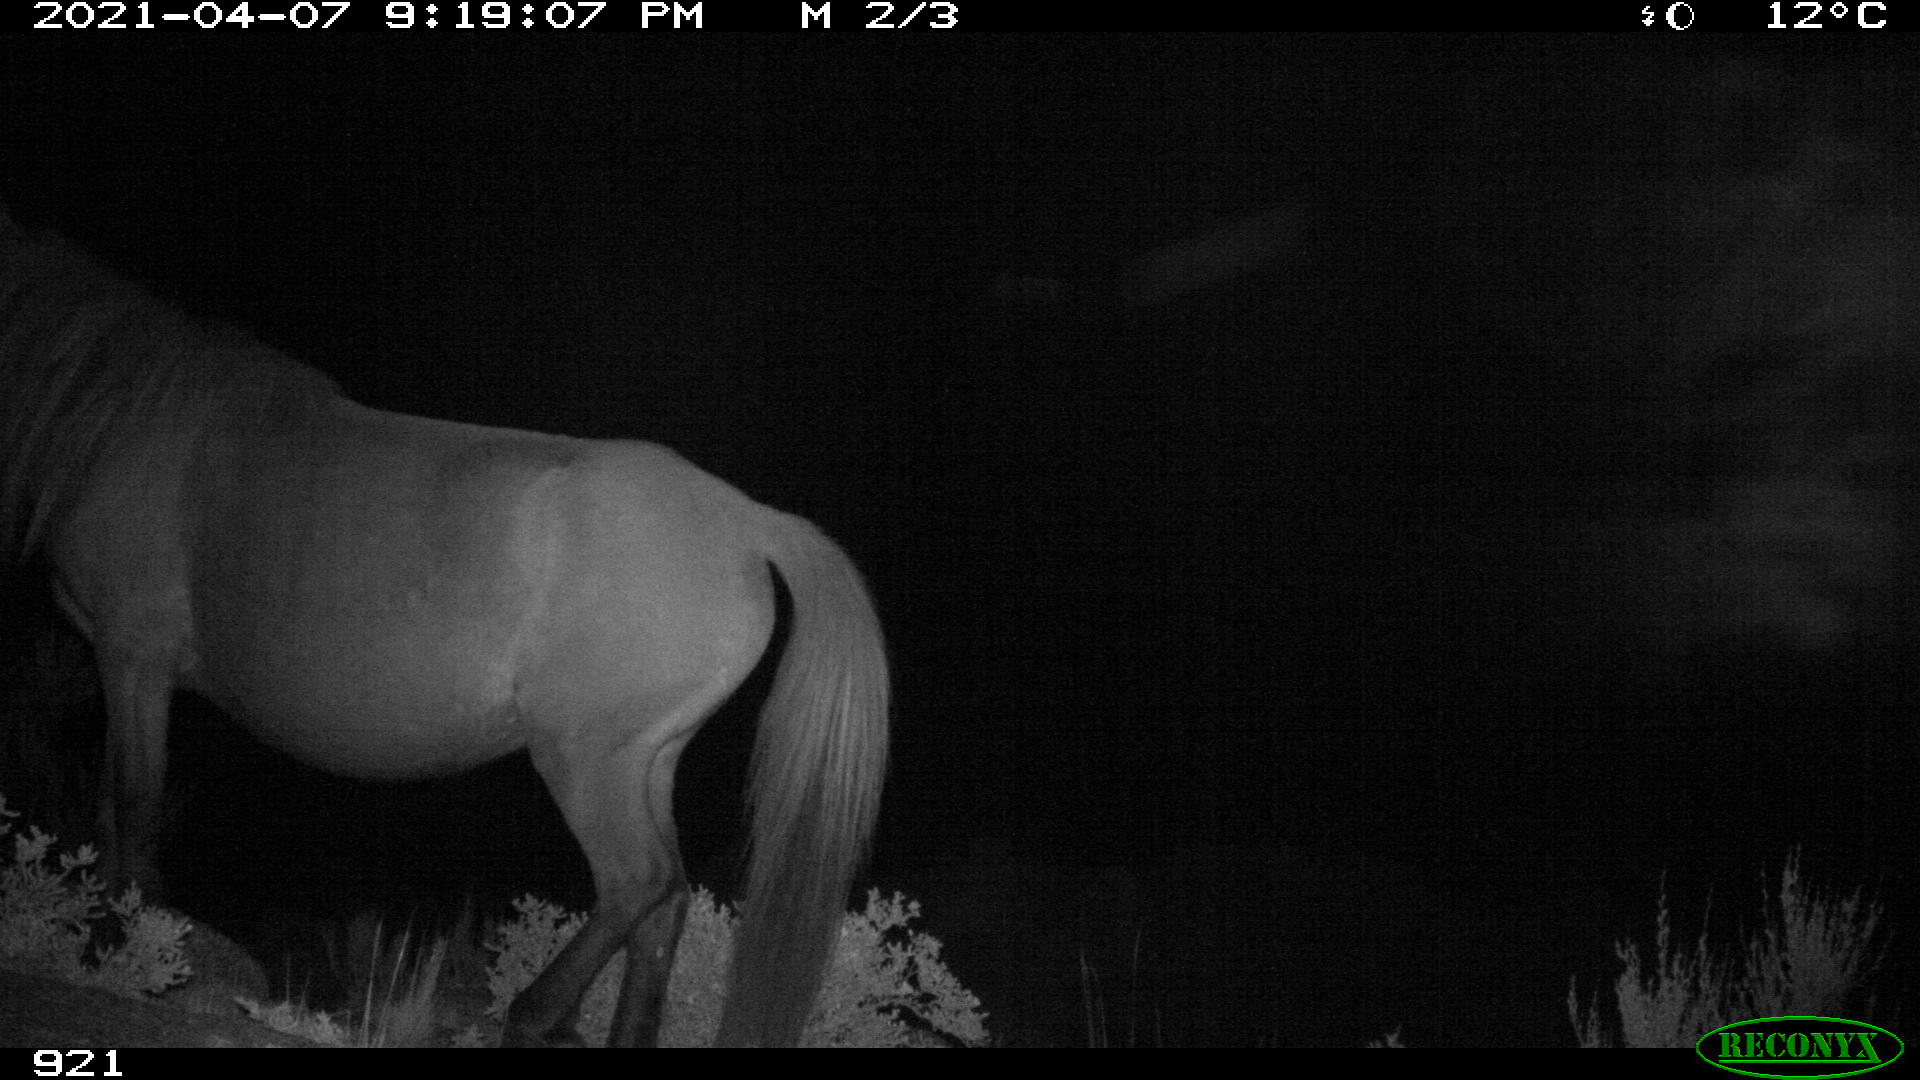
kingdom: Animalia
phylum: Chordata
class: Mammalia
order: Perissodactyla
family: Equidae
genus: Equus
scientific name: Equus caballus
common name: Horse
